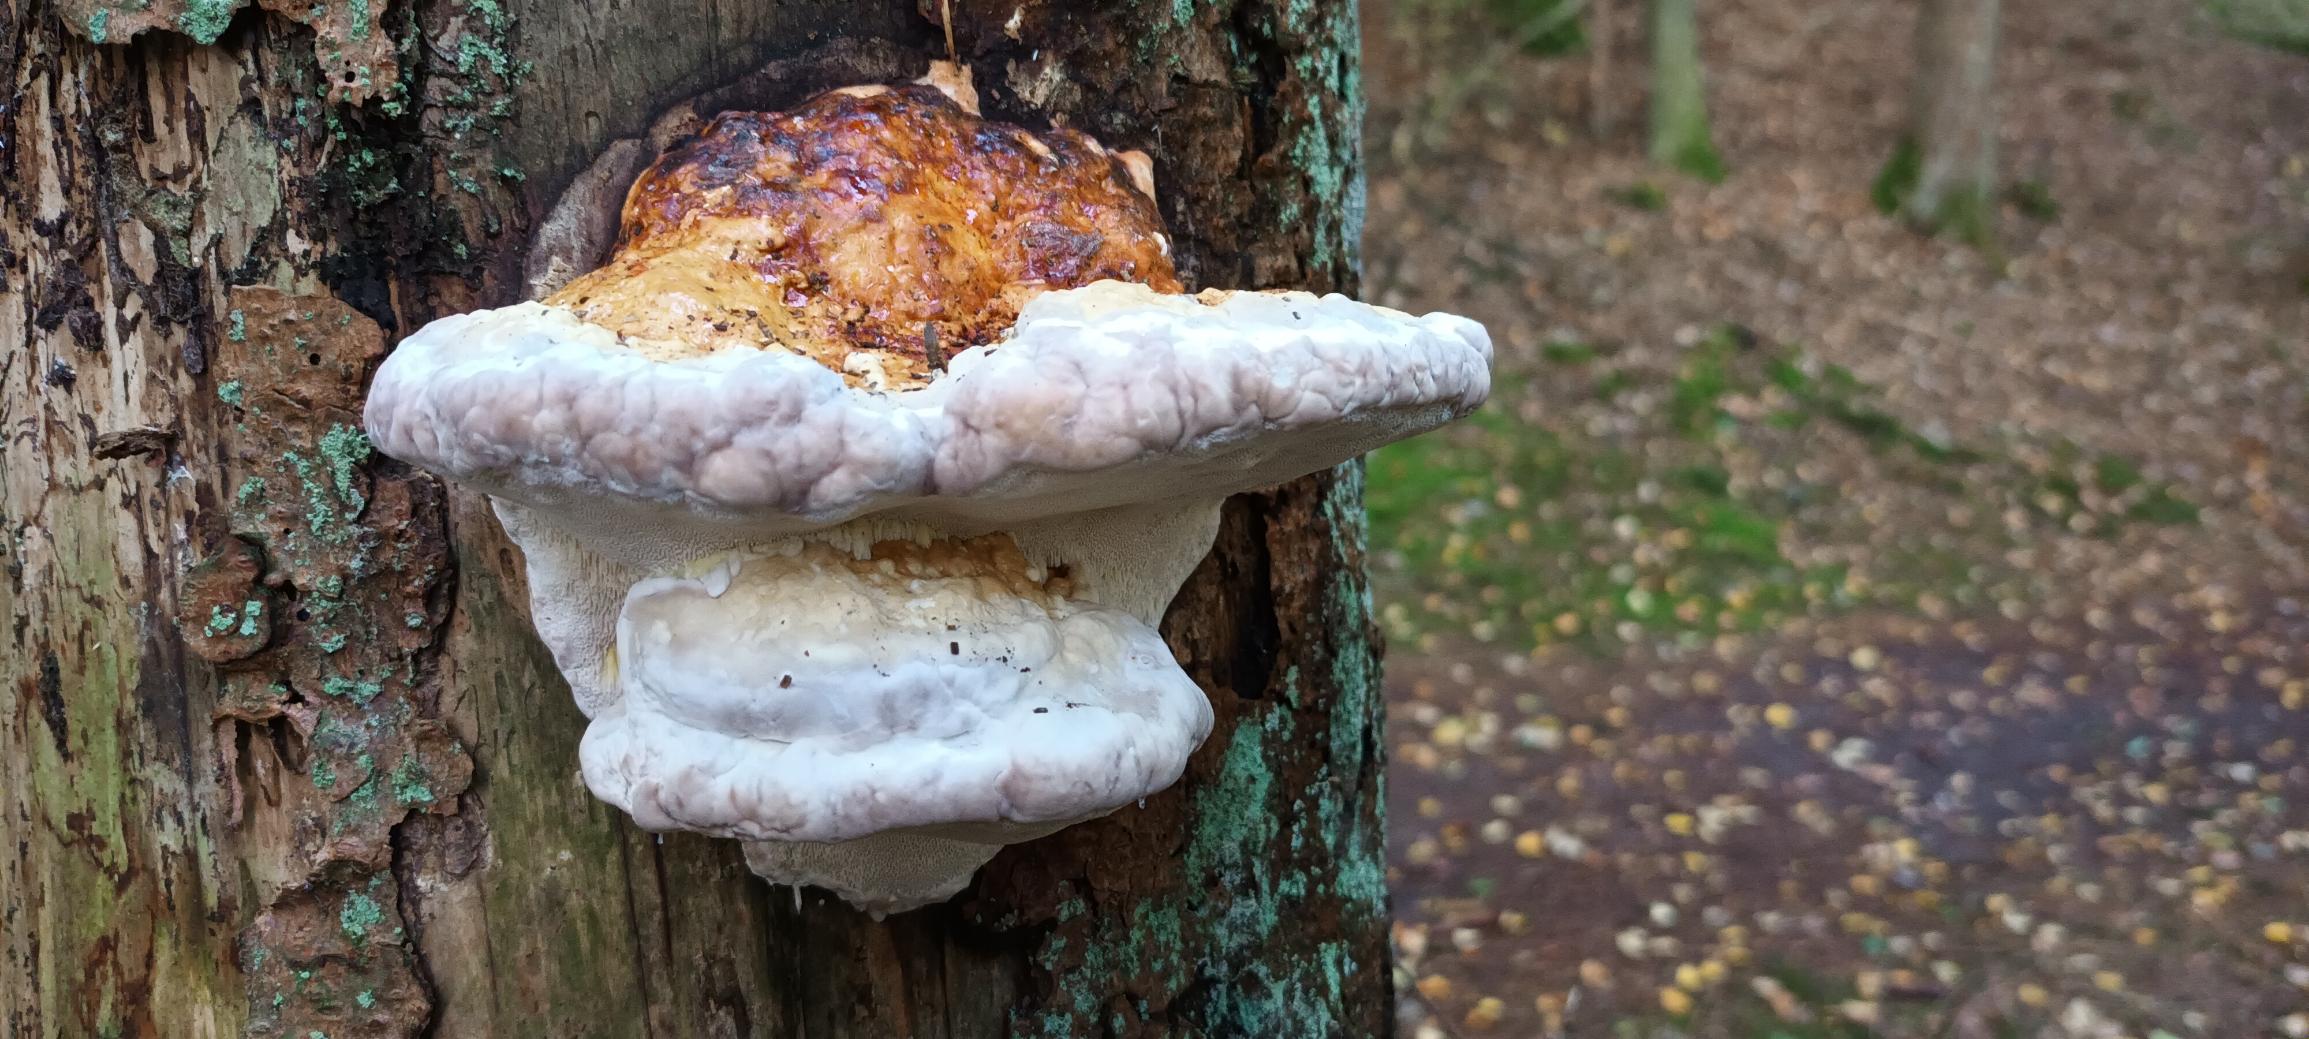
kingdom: Fungi
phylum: Basidiomycota
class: Agaricomycetes
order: Polyporales
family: Fomitopsidaceae
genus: Fomitopsis
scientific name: Fomitopsis pinicola
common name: Randbæltet hovporesvamp
